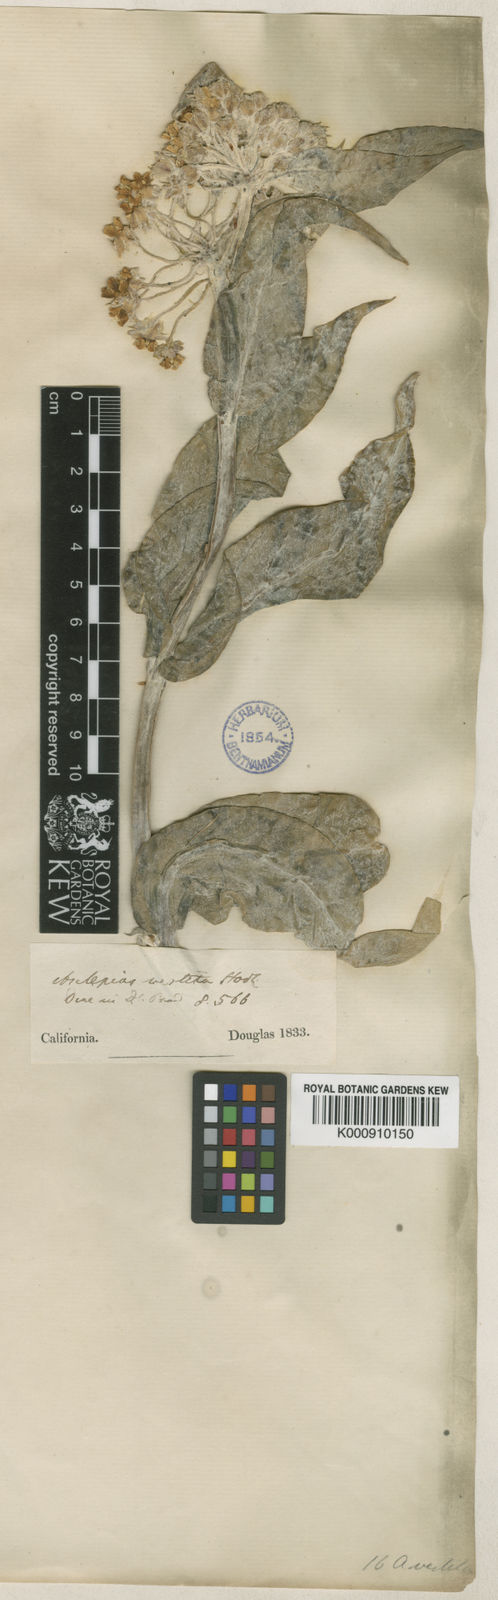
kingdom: Plantae
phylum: Tracheophyta
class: Magnoliopsida
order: Gentianales
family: Apocynaceae
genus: Asclepias
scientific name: Asclepias vestita
